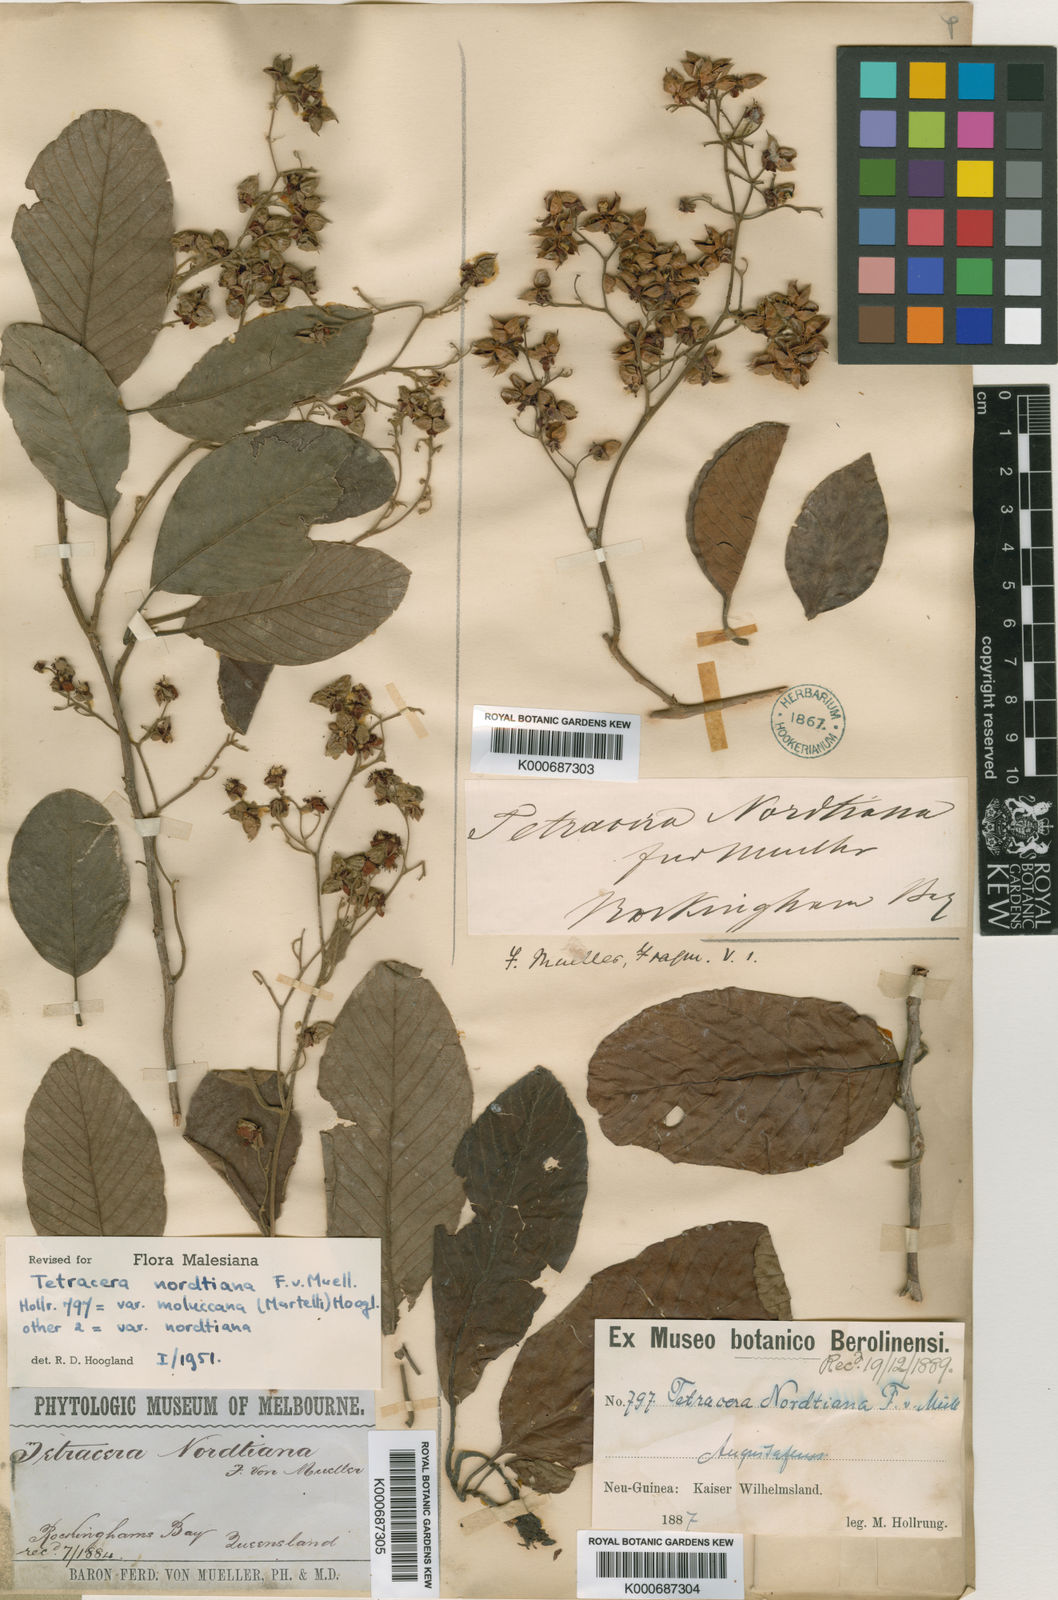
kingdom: Plantae
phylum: Tracheophyta
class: Magnoliopsida
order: Dilleniales
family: Dilleniaceae
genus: Tetracera
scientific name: Tetracera nordtiana
